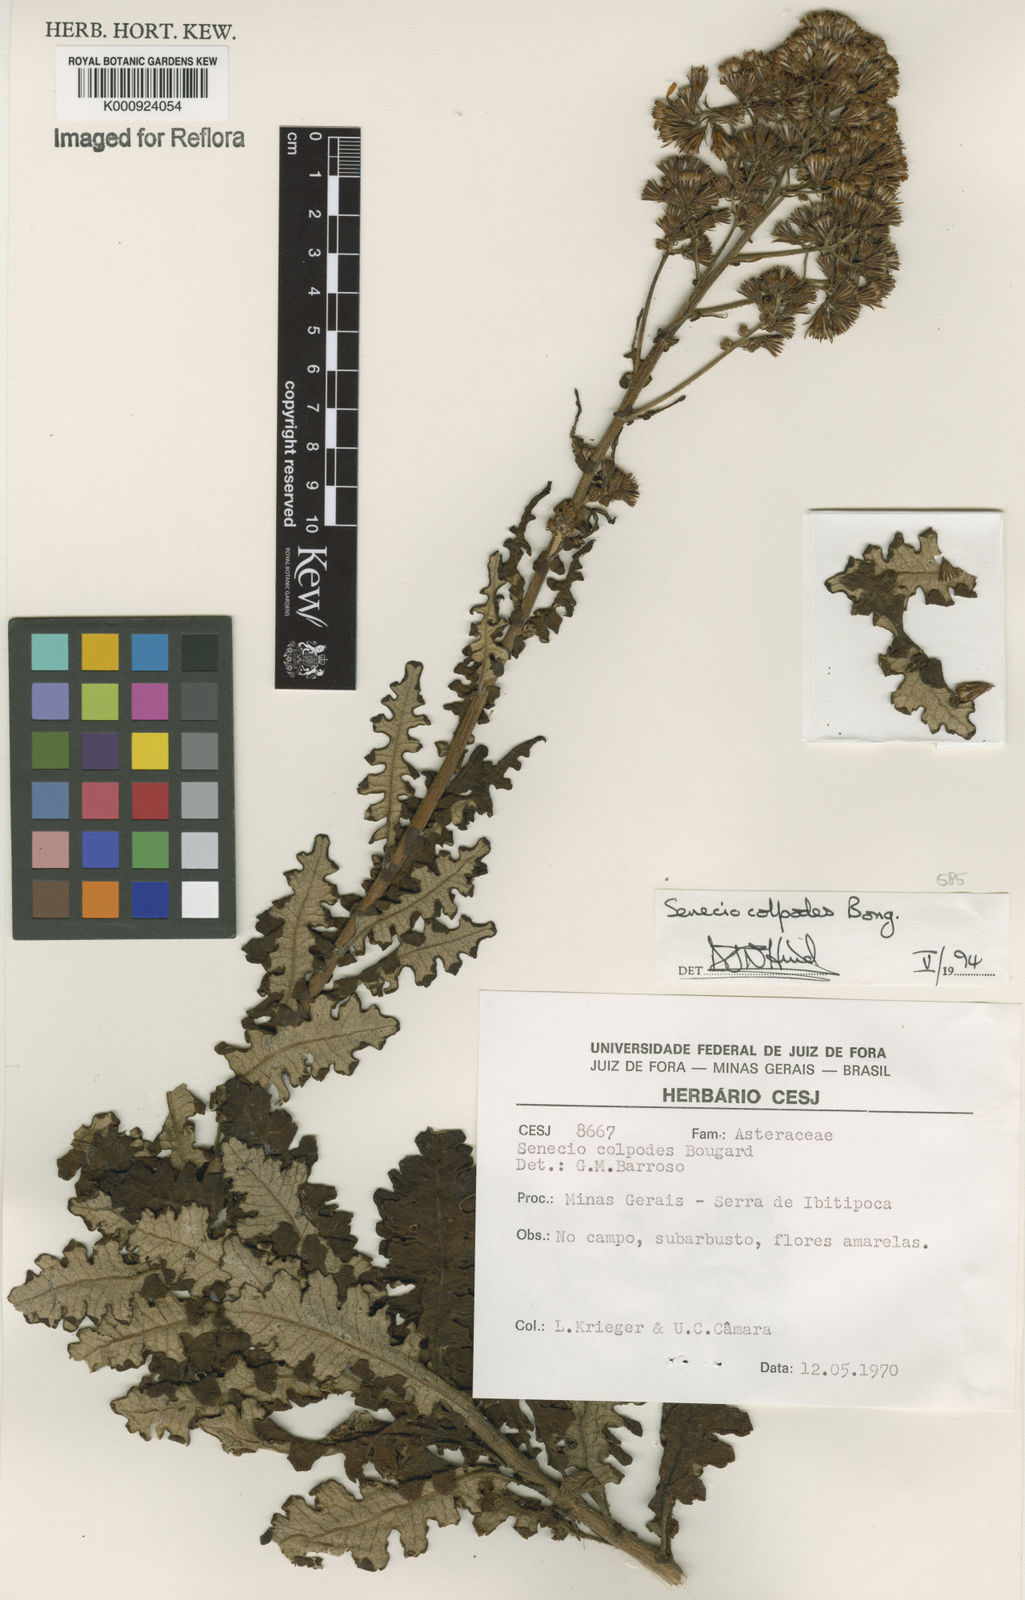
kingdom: Plantae
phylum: Tracheophyta
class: Magnoliopsida
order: Asterales
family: Asteraceae
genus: Senecio
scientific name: Senecio colpodes
